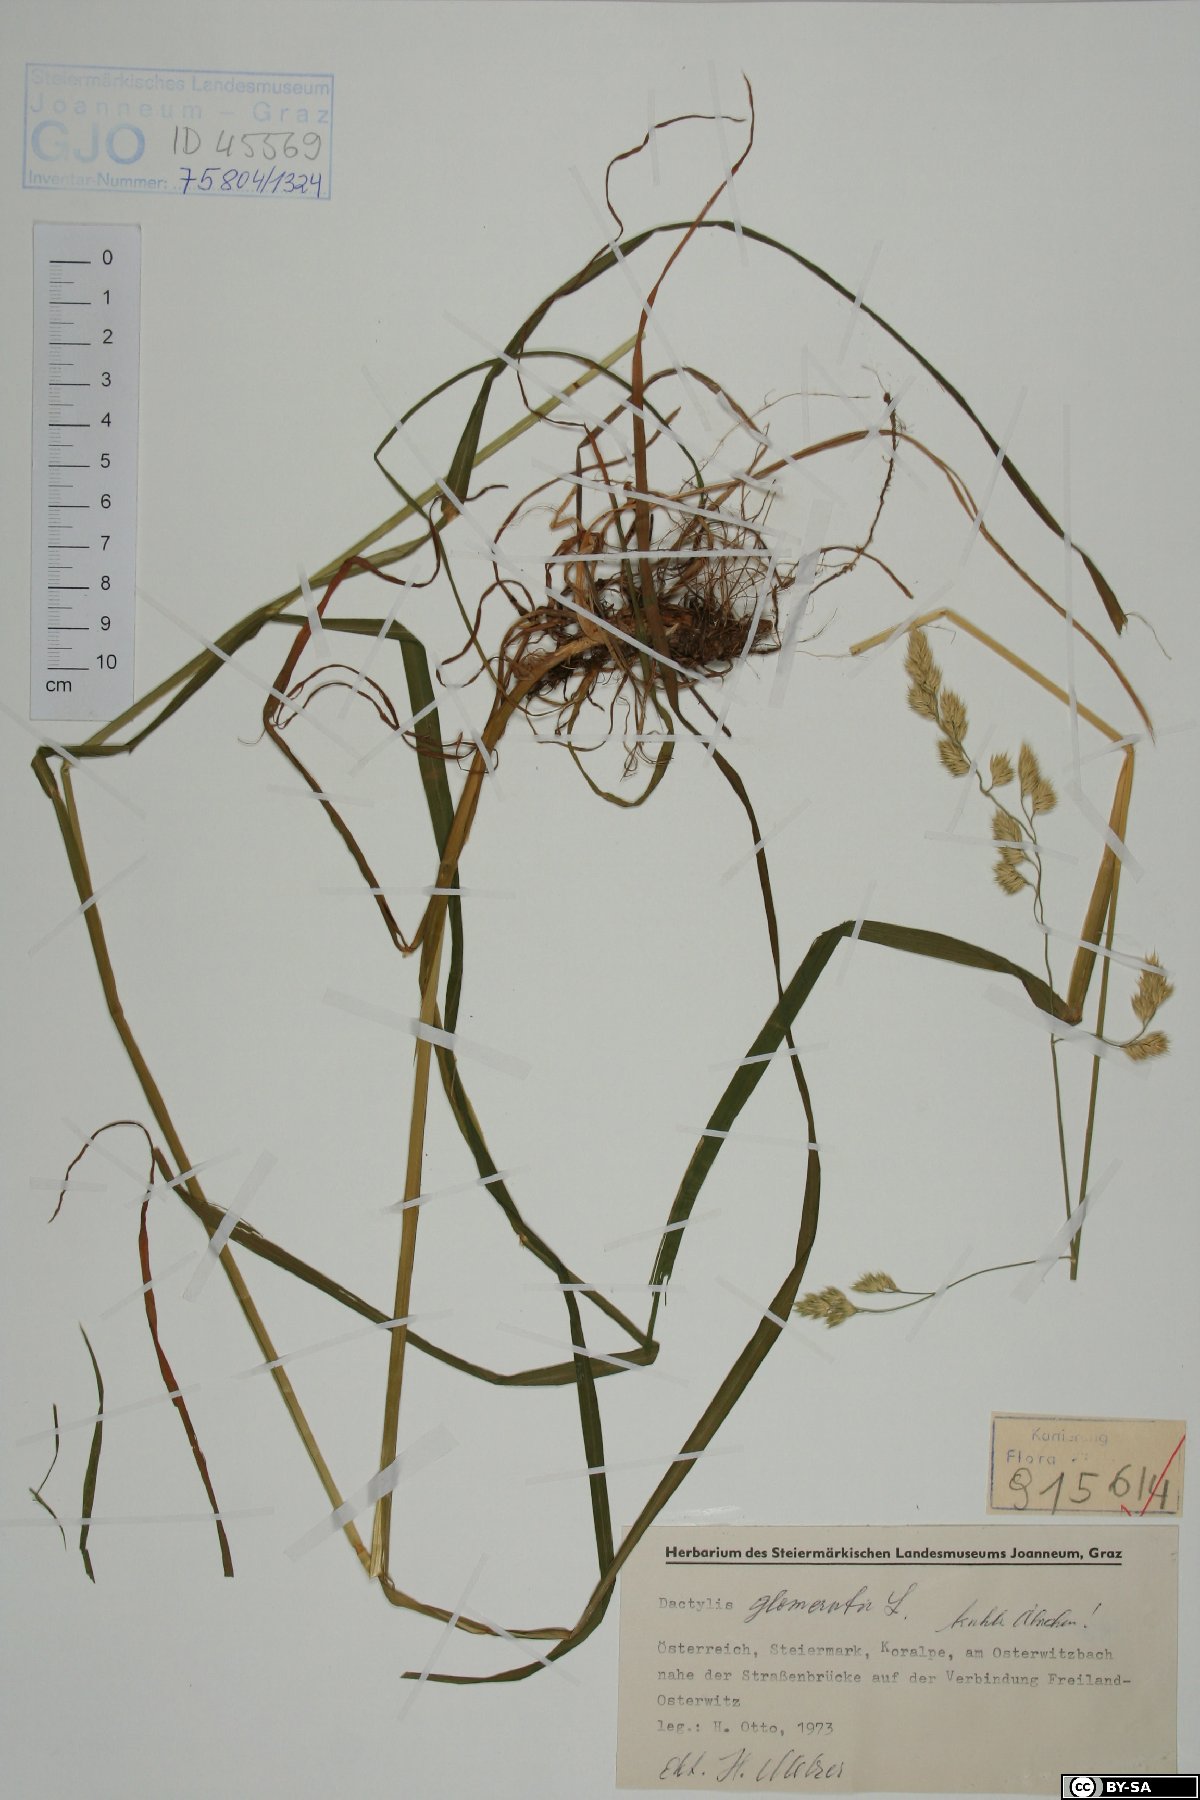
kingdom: Plantae
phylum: Tracheophyta
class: Liliopsida
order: Poales
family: Poaceae
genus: Dactylis
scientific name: Dactylis glomerata
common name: Orchardgrass
